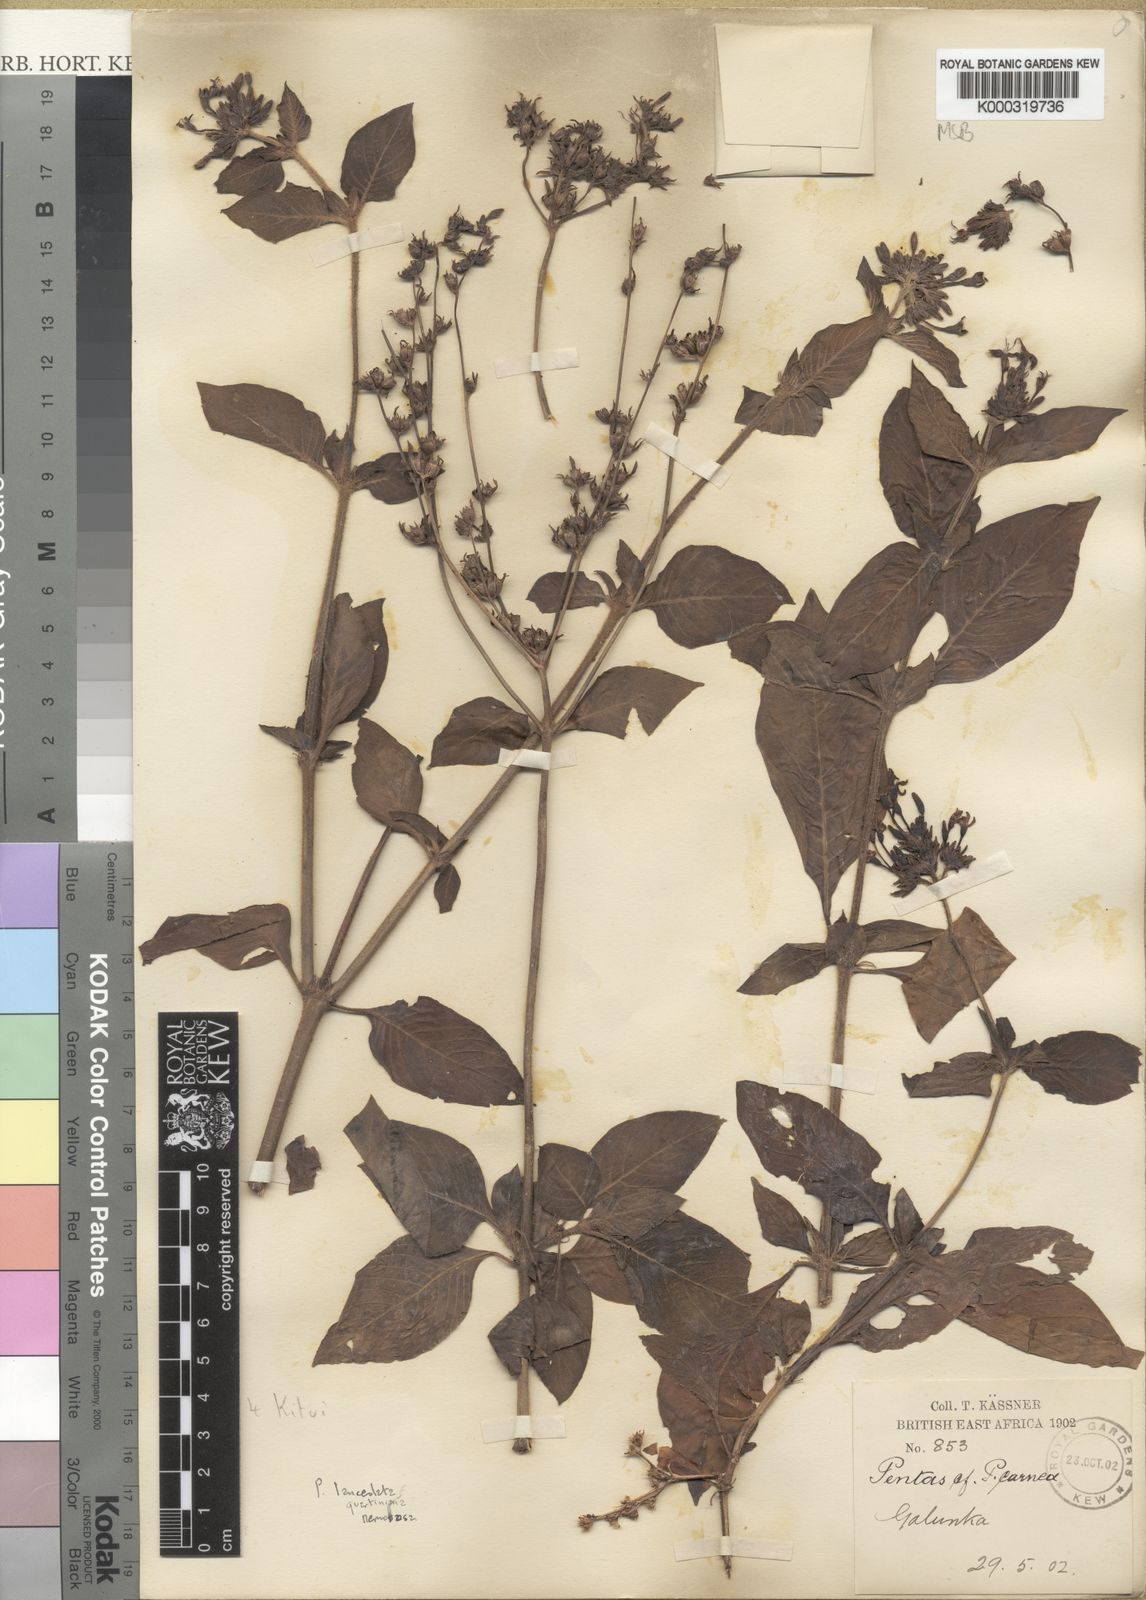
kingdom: Plantae
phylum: Tracheophyta
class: Magnoliopsida
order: Gentianales
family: Rubiaceae
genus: Pentas
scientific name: Pentas lanceolata
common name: Egyptian starcluster
